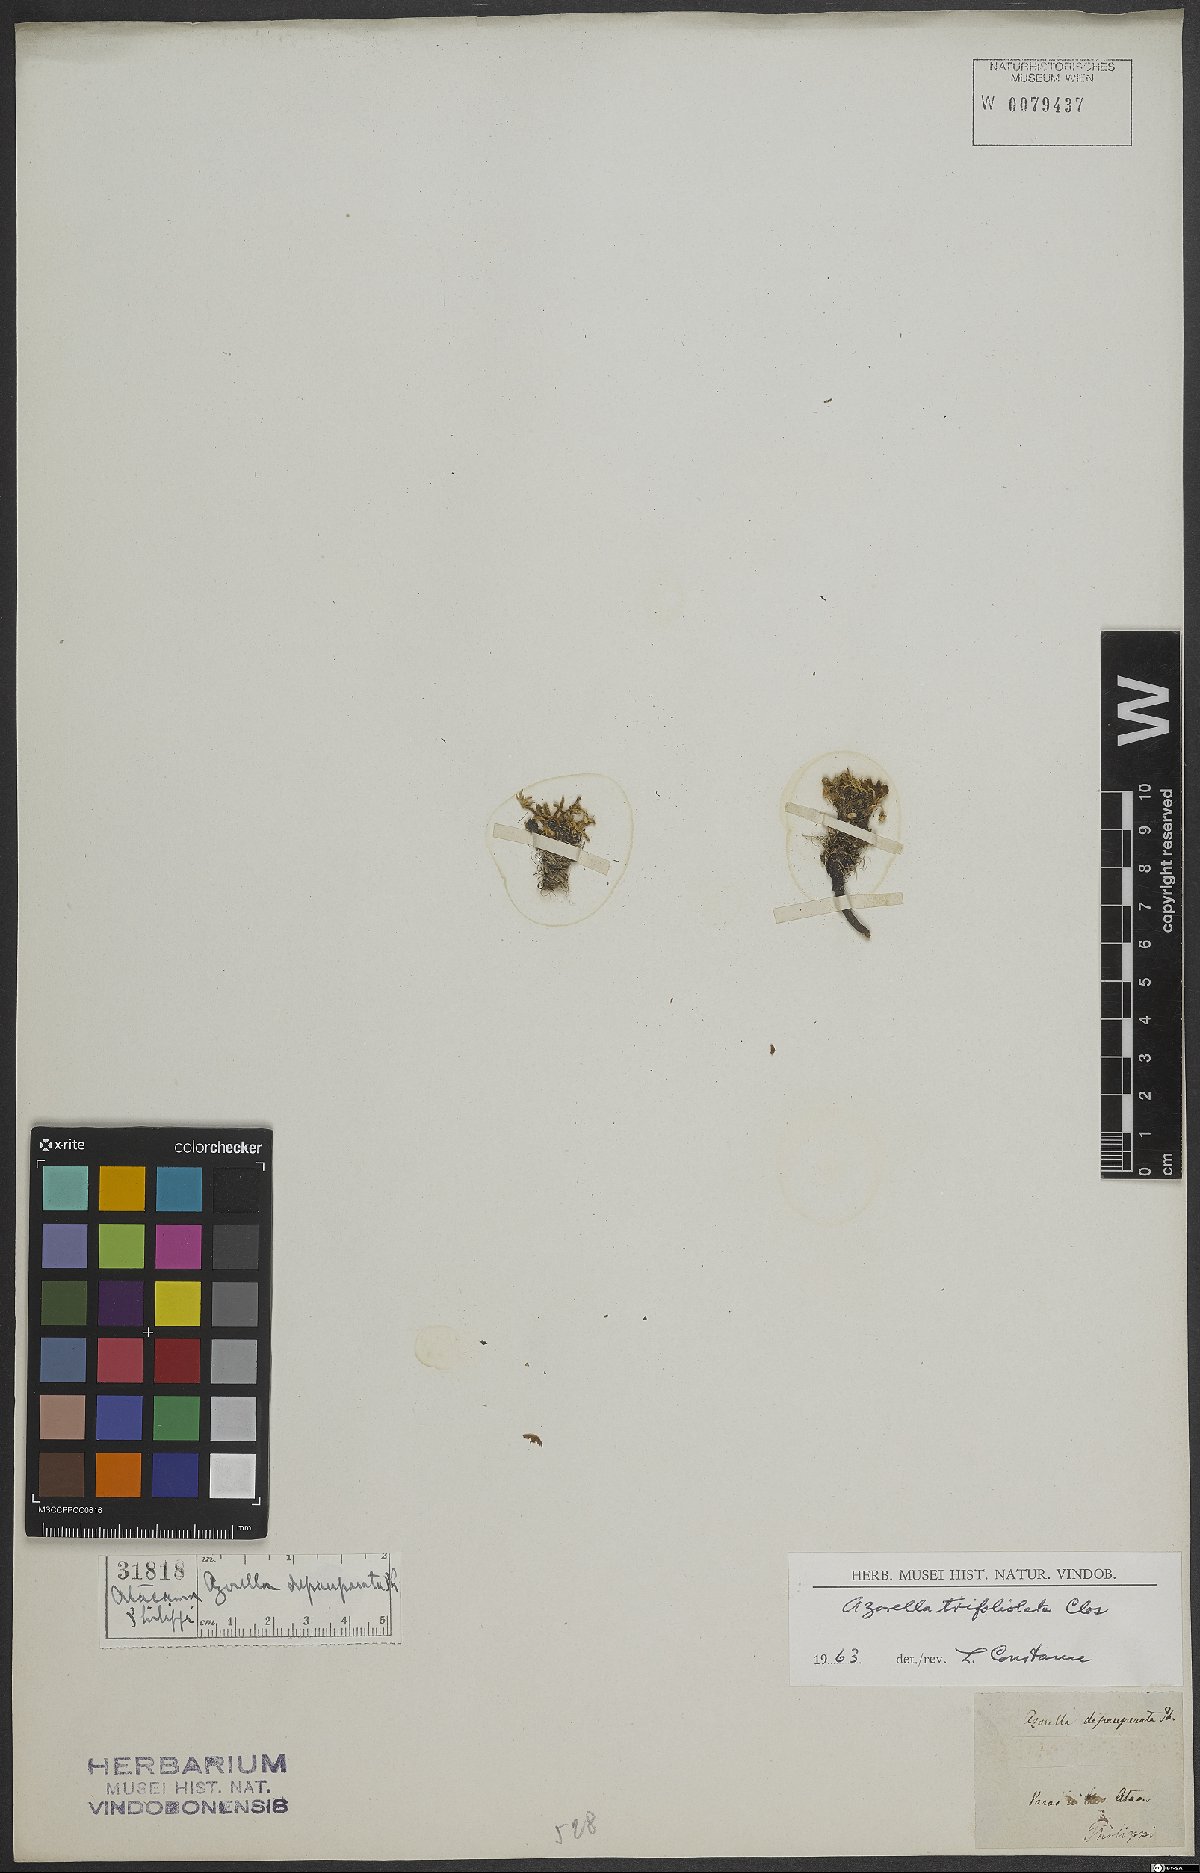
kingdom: Plantae
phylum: Tracheophyta
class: Magnoliopsida
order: Apiales
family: Apiaceae
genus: Azorella
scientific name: Azorella trifoliolata
